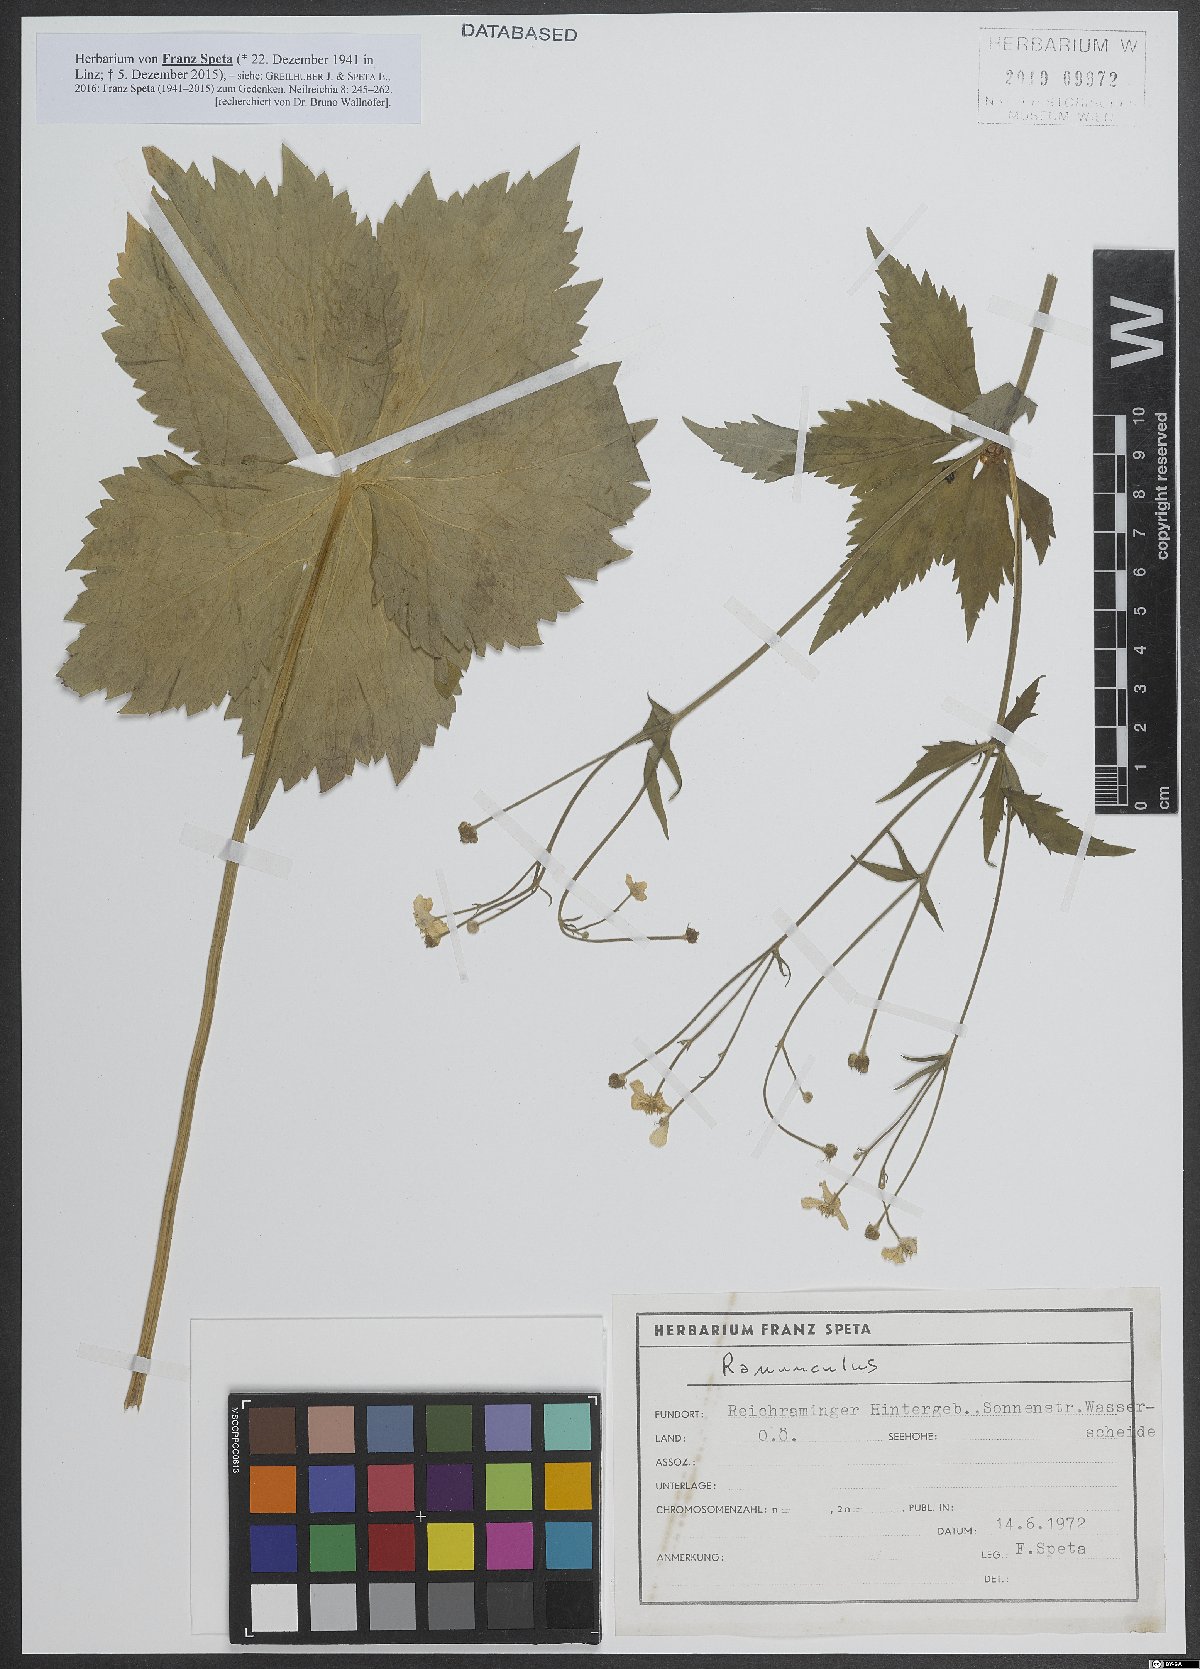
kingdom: Plantae
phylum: Tracheophyta
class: Magnoliopsida
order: Ranunculales
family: Ranunculaceae
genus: Ranunculus
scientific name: Ranunculus
